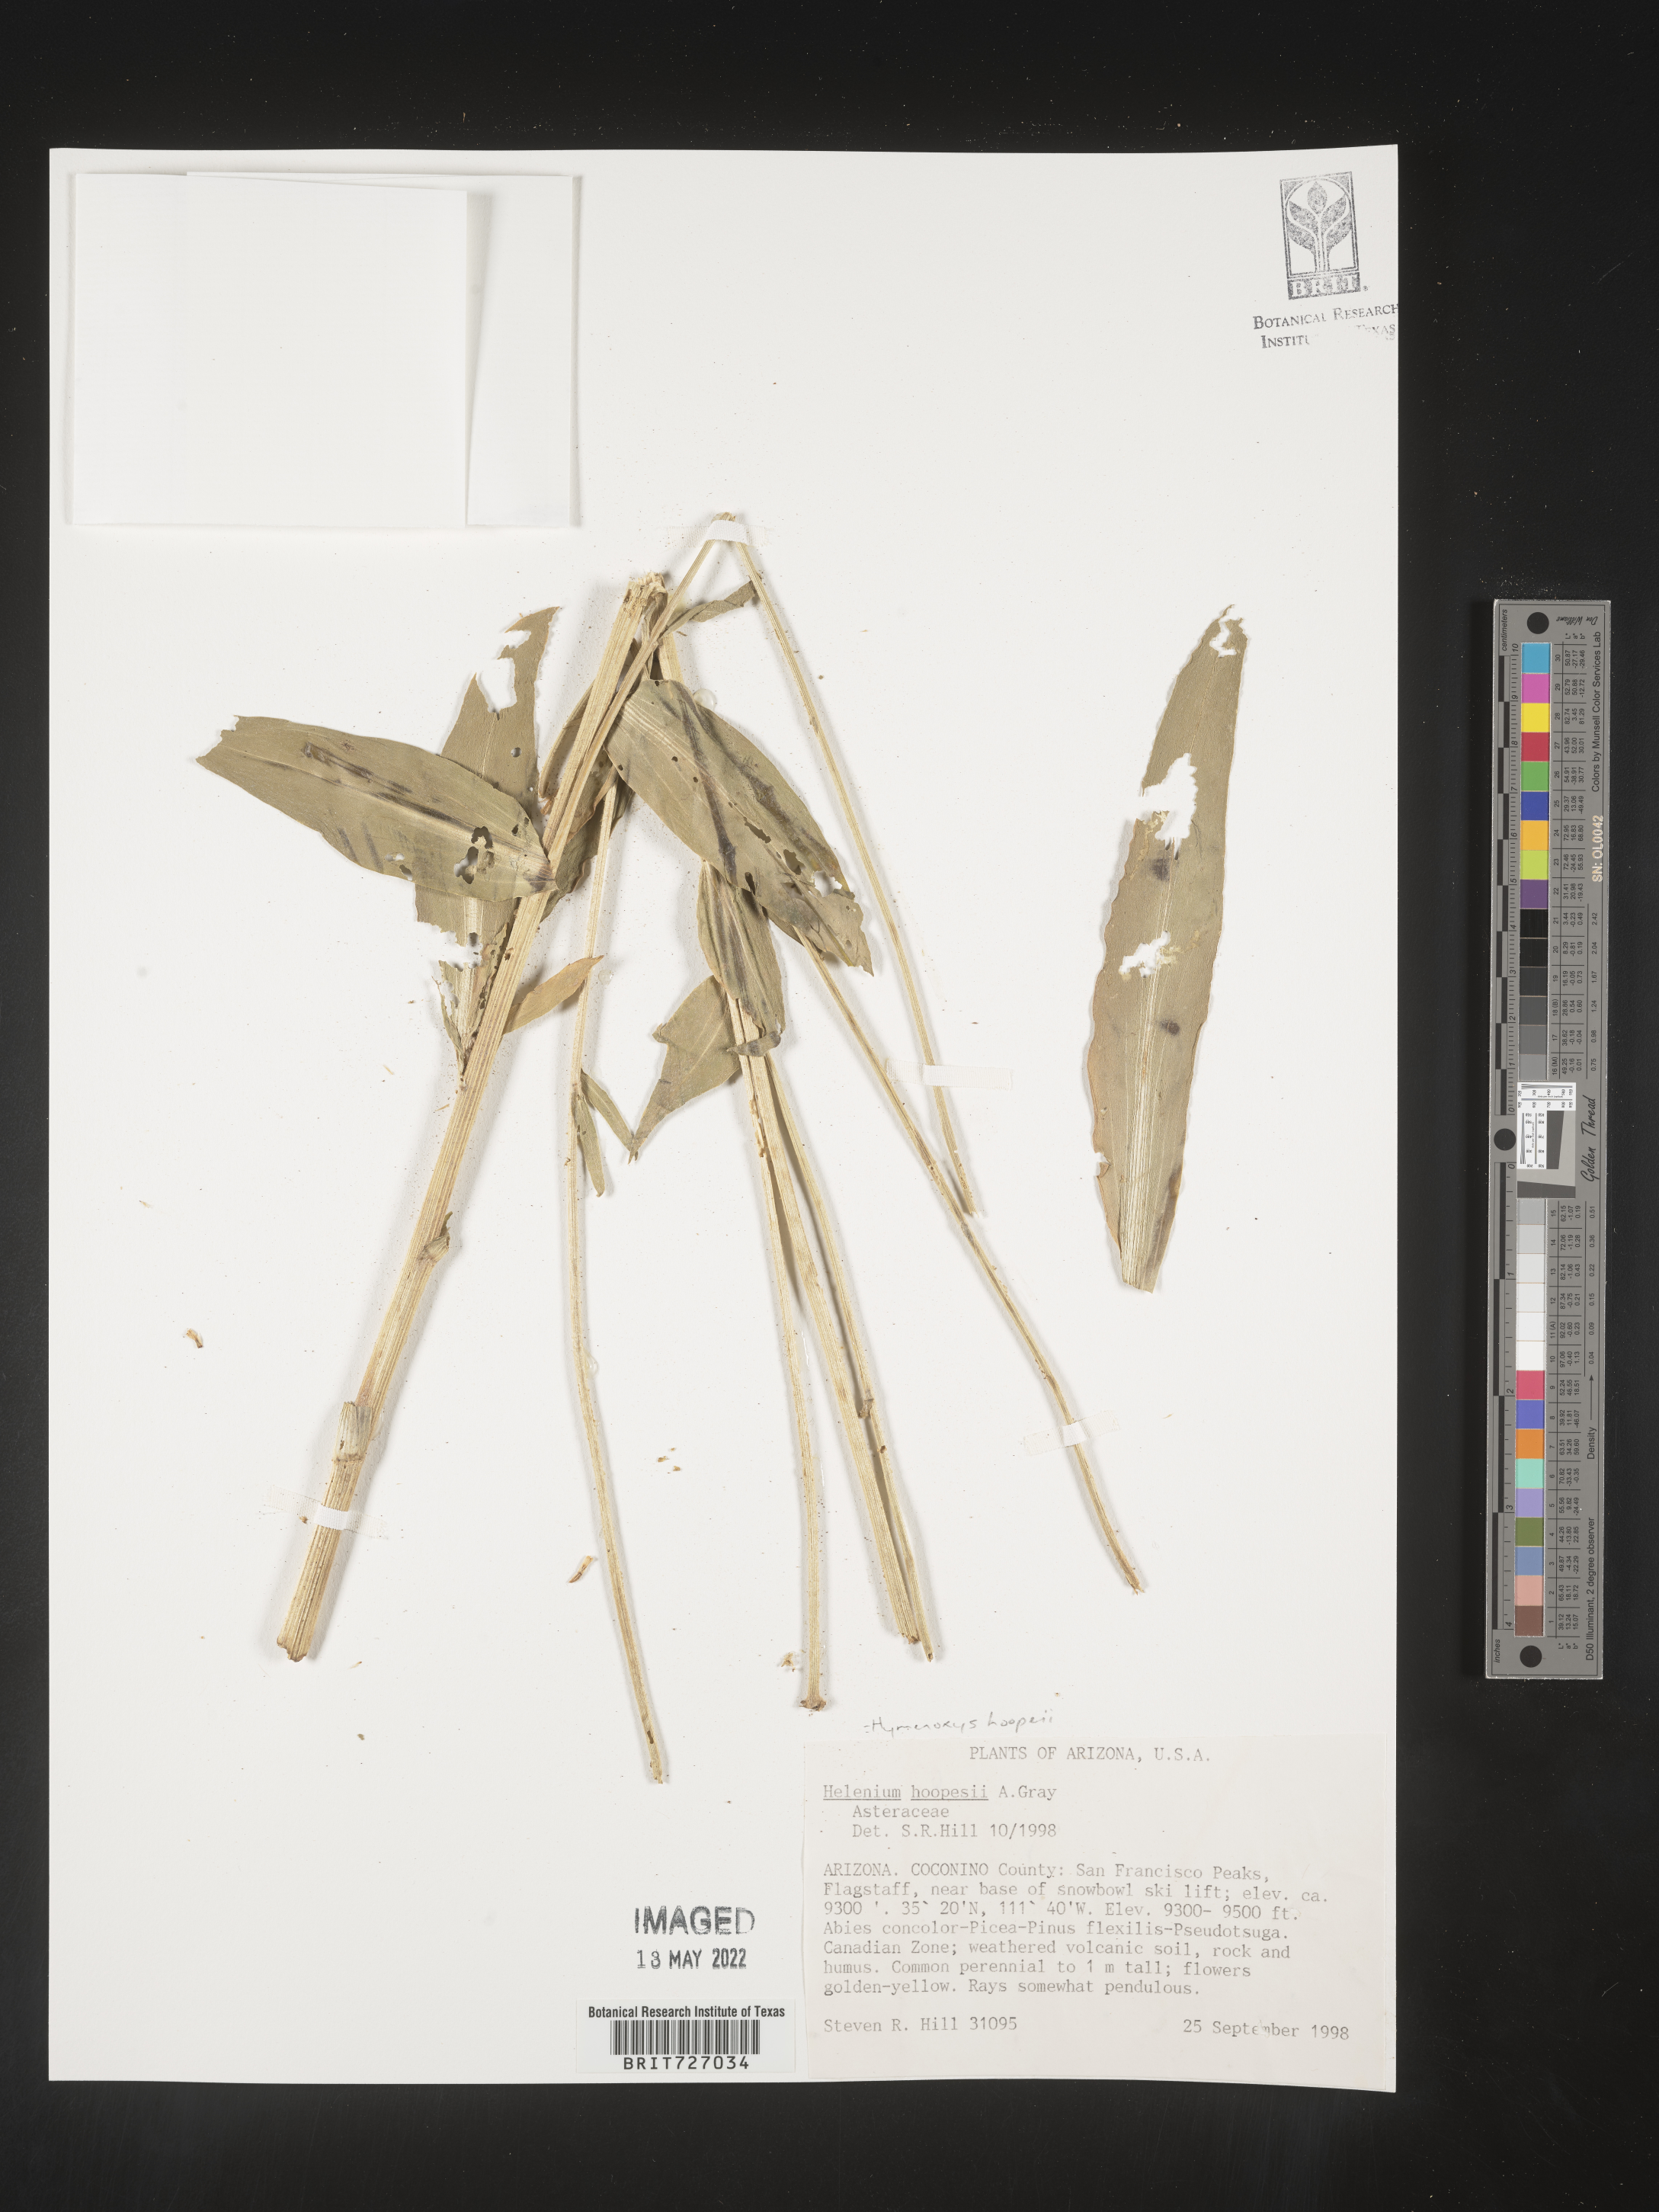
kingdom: Plantae
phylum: Tracheophyta
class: Magnoliopsida
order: Asterales
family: Asteraceae
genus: Hymenoxys
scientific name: Hymenoxys hoopesii
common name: Orange-sneezeweed
